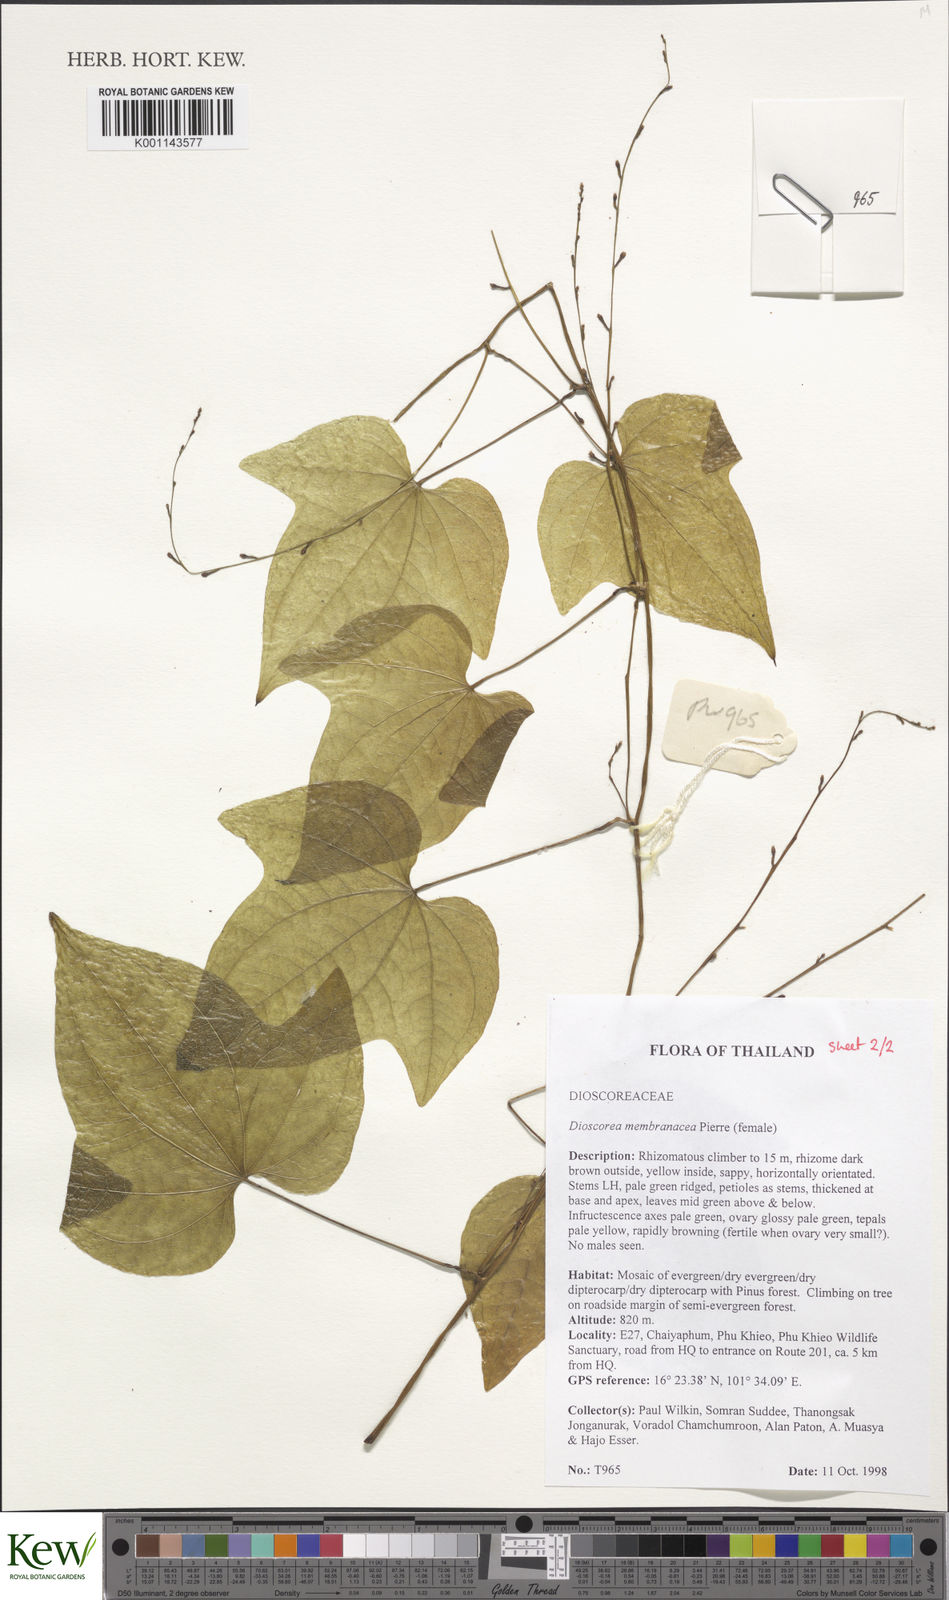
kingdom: Plantae
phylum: Tracheophyta
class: Liliopsida
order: Dioscoreales
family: Dioscoreaceae
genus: Dioscorea
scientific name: Dioscorea membranacea
